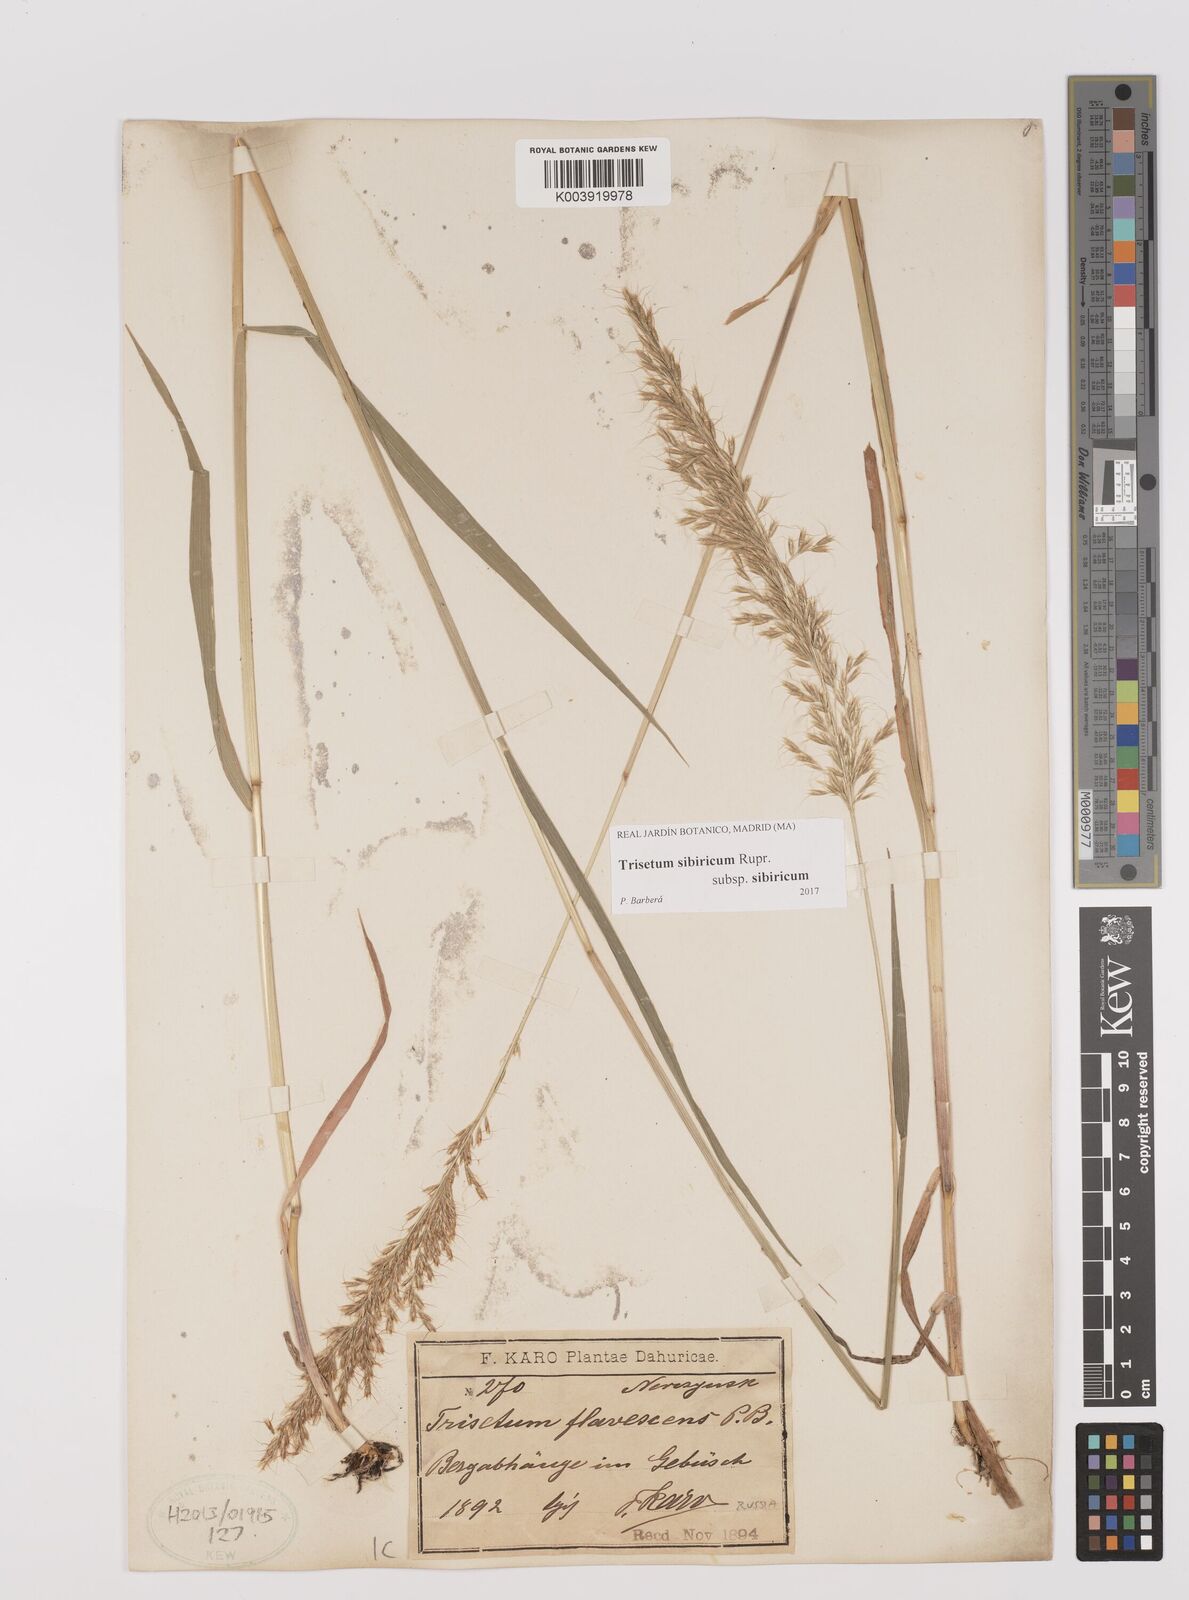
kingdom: Plantae
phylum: Tracheophyta
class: Liliopsida
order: Poales
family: Poaceae
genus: Sibirotrisetum
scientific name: Sibirotrisetum sibiricum
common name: Siberian false oat
